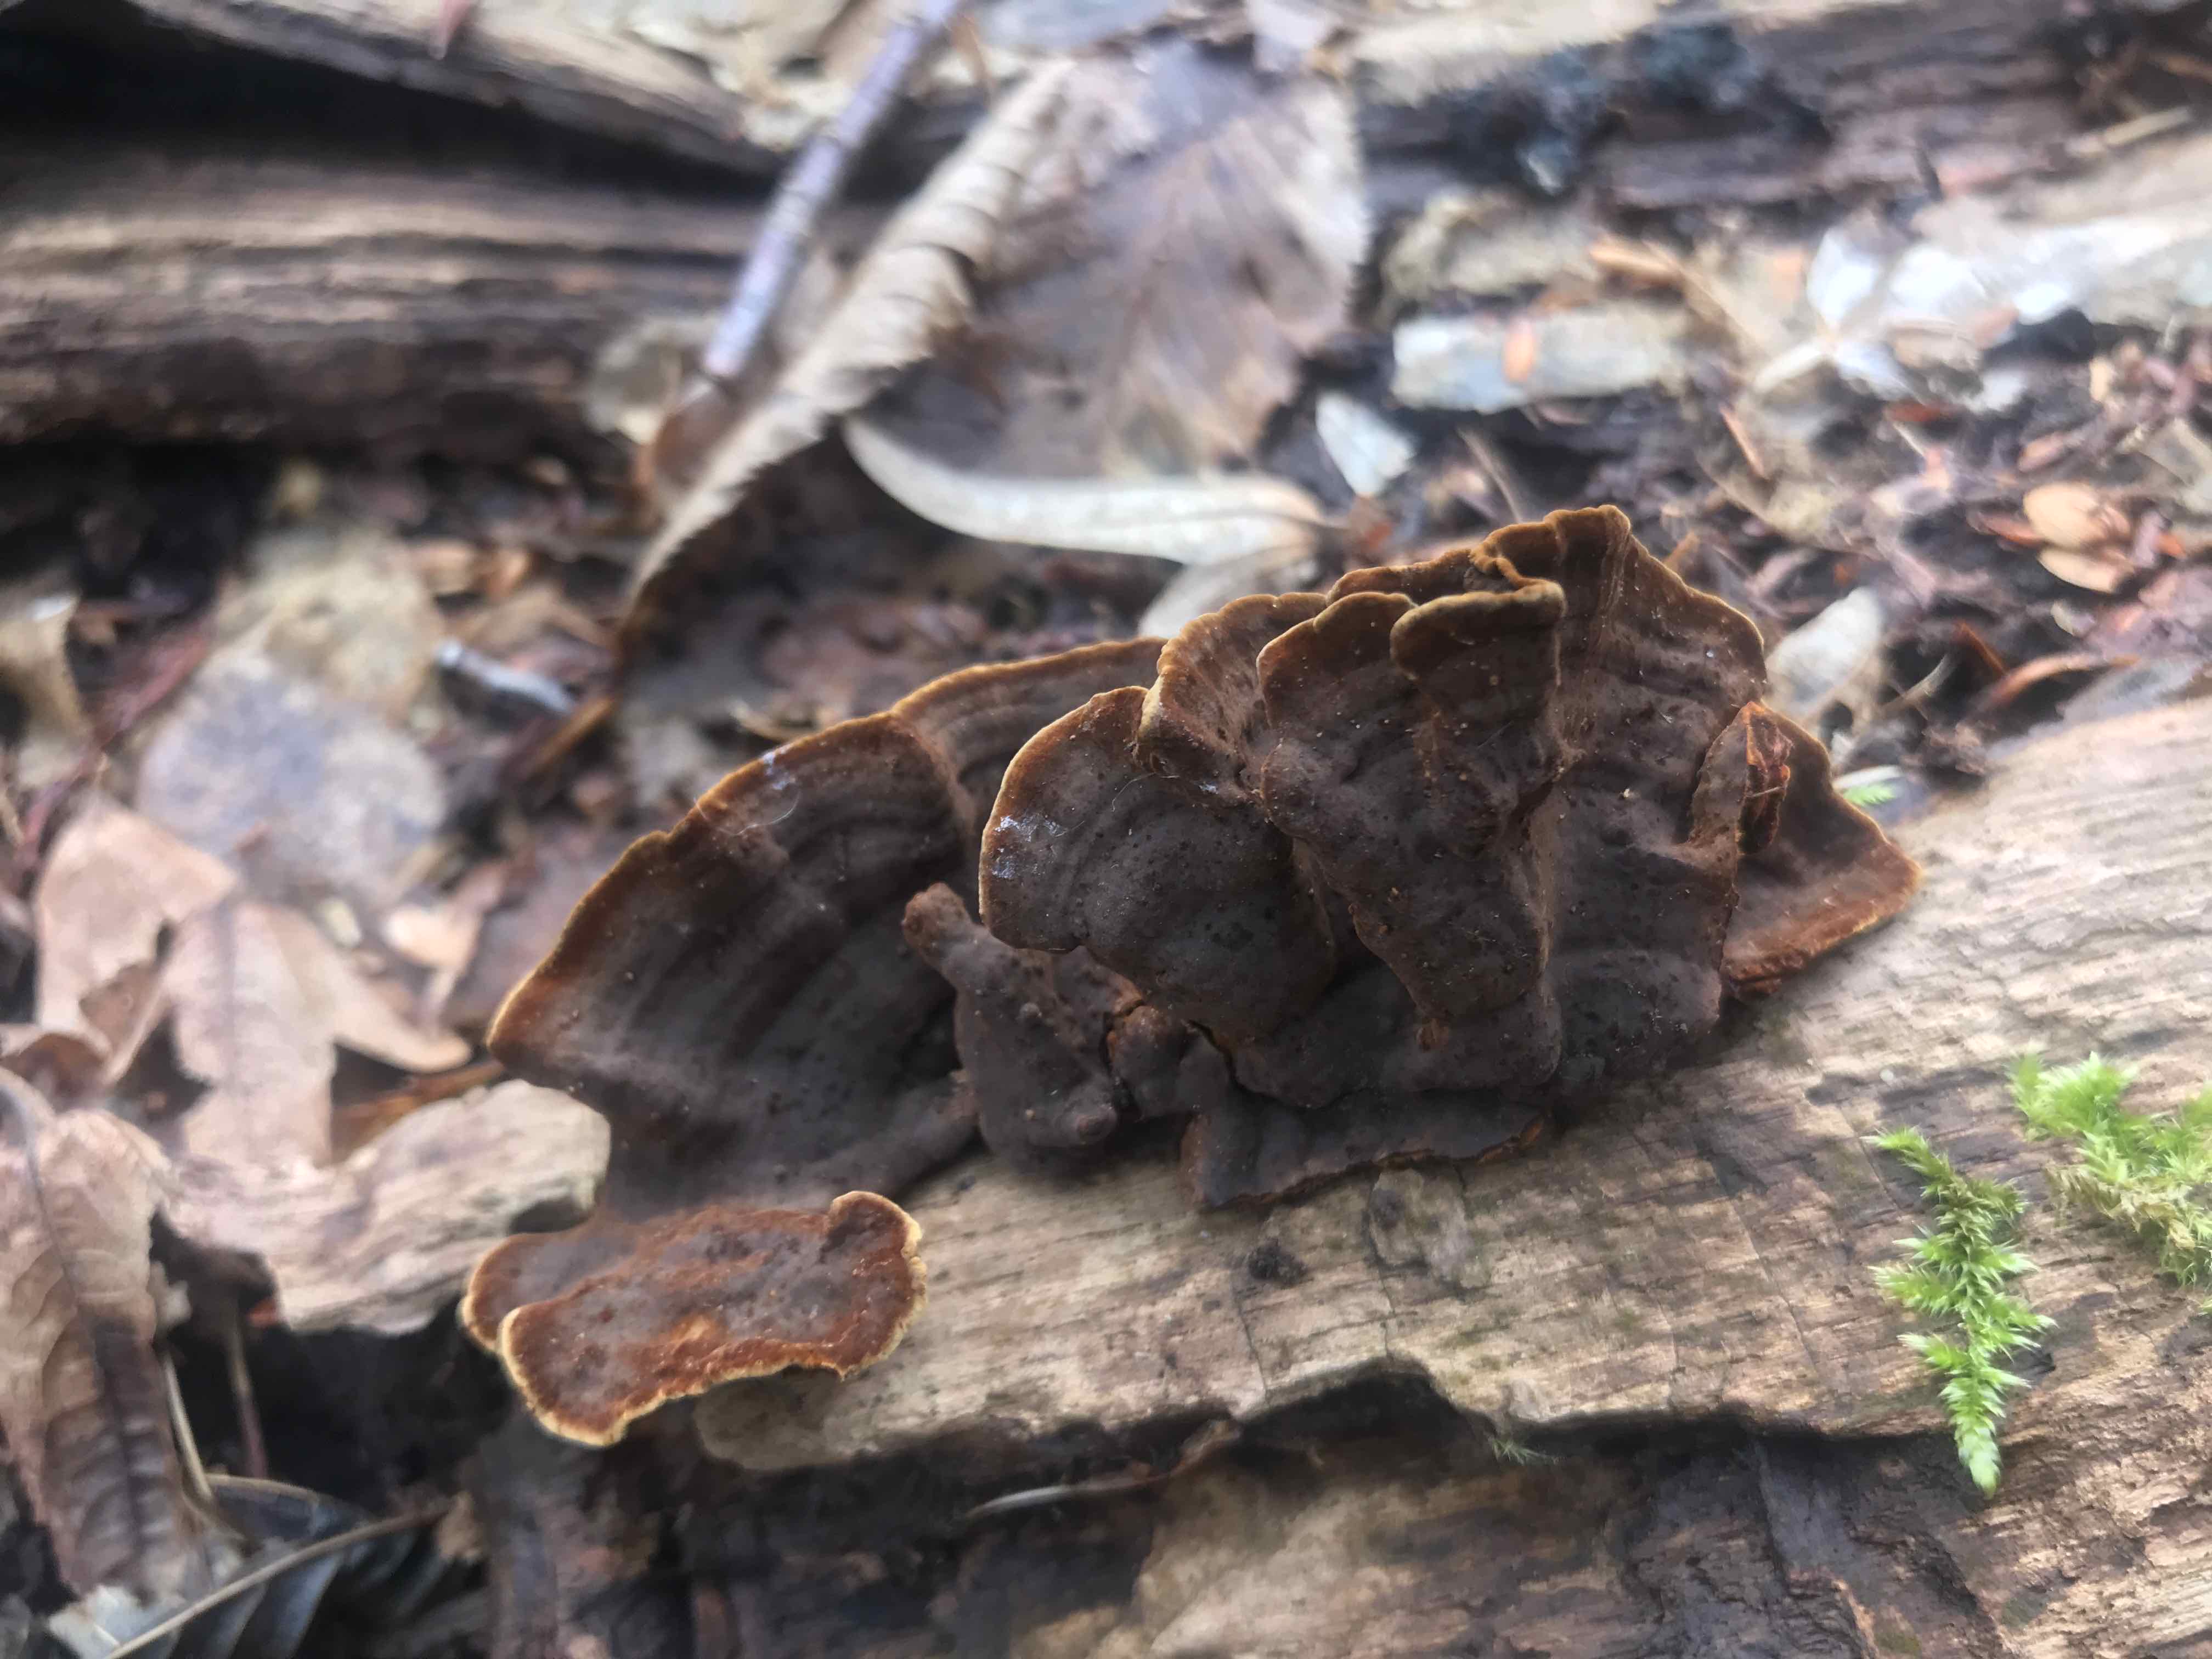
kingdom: Fungi
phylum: Basidiomycota
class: Agaricomycetes
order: Hymenochaetales
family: Hymenochaetaceae
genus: Hymenochaete
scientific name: Hymenochaete rubiginosa
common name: stiv ruslædersvamp
